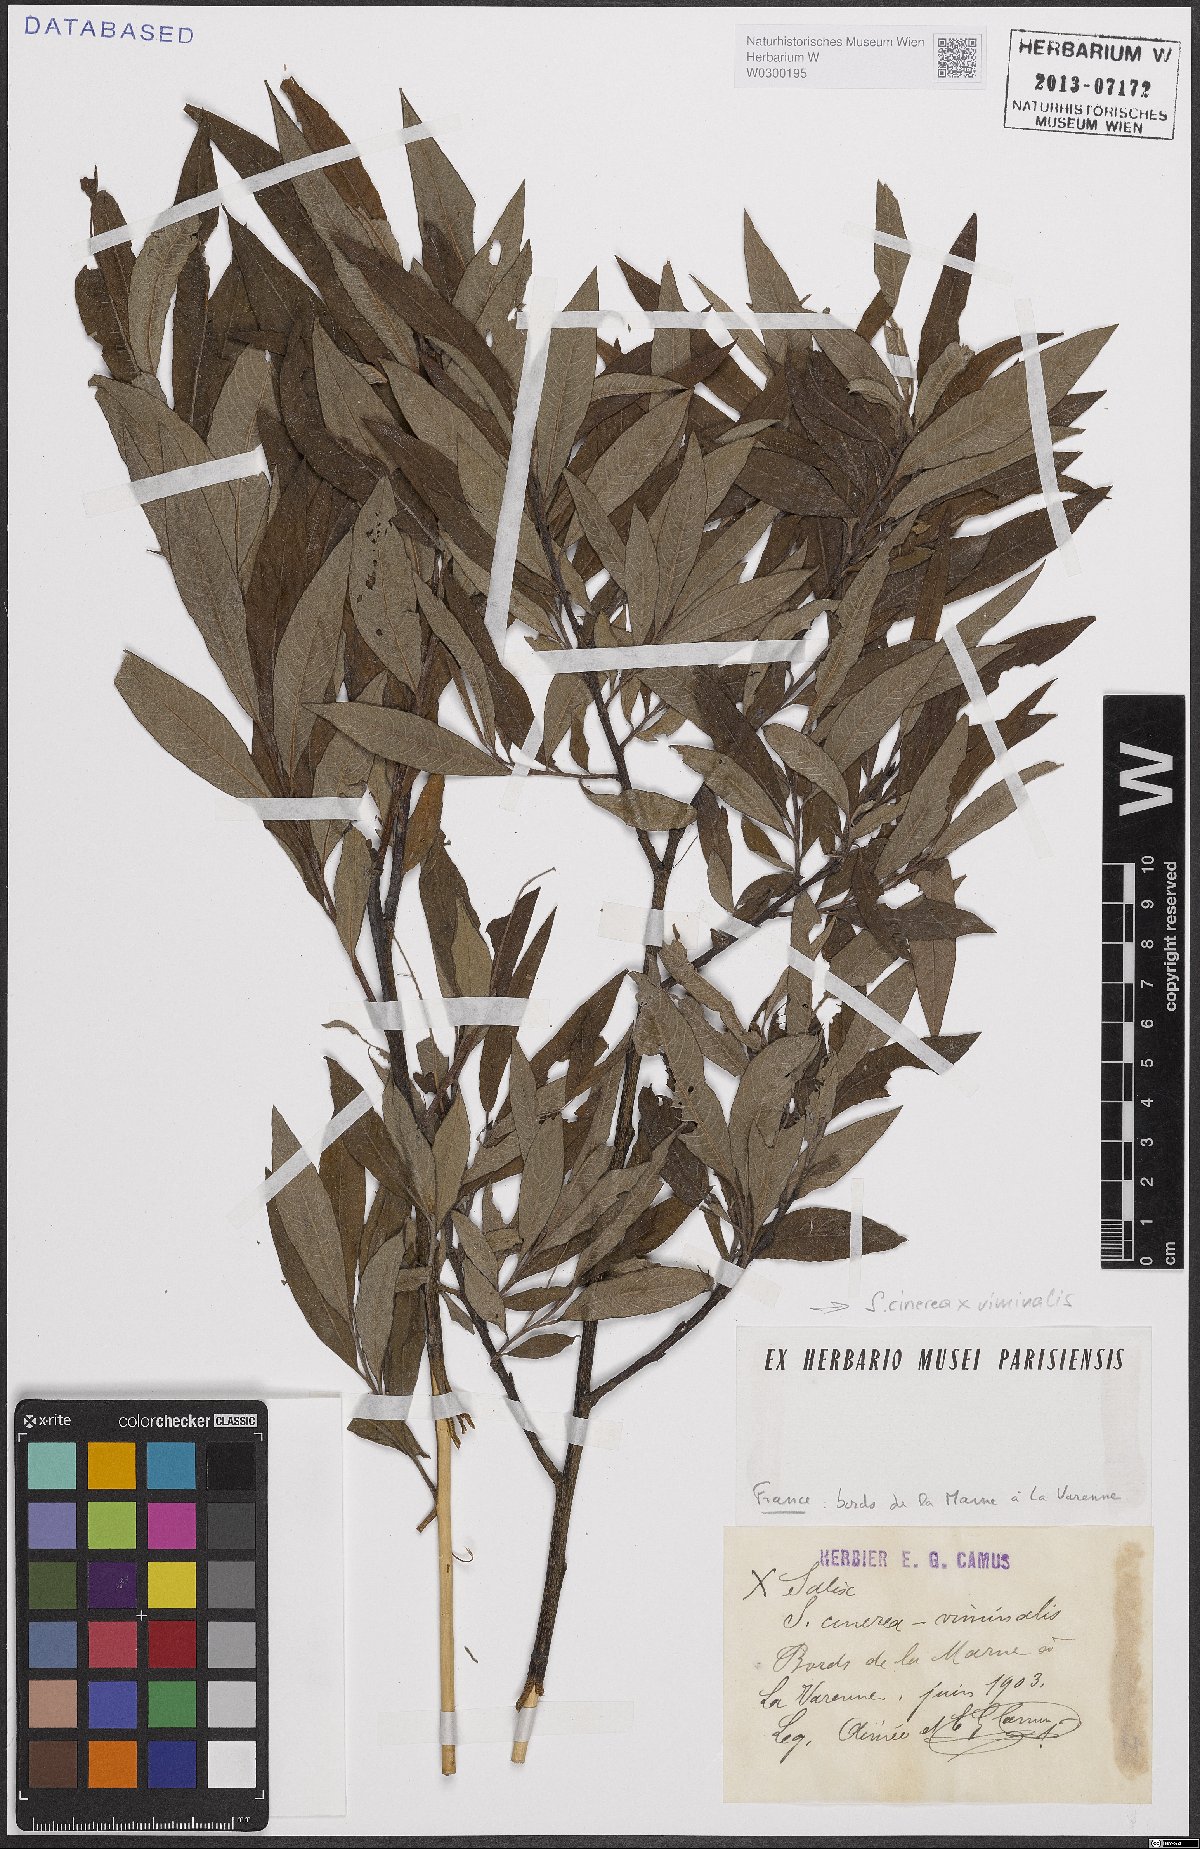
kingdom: Plantae
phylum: Tracheophyta
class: Magnoliopsida
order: Malpighiales
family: Salicaceae
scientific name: Salicaceae
